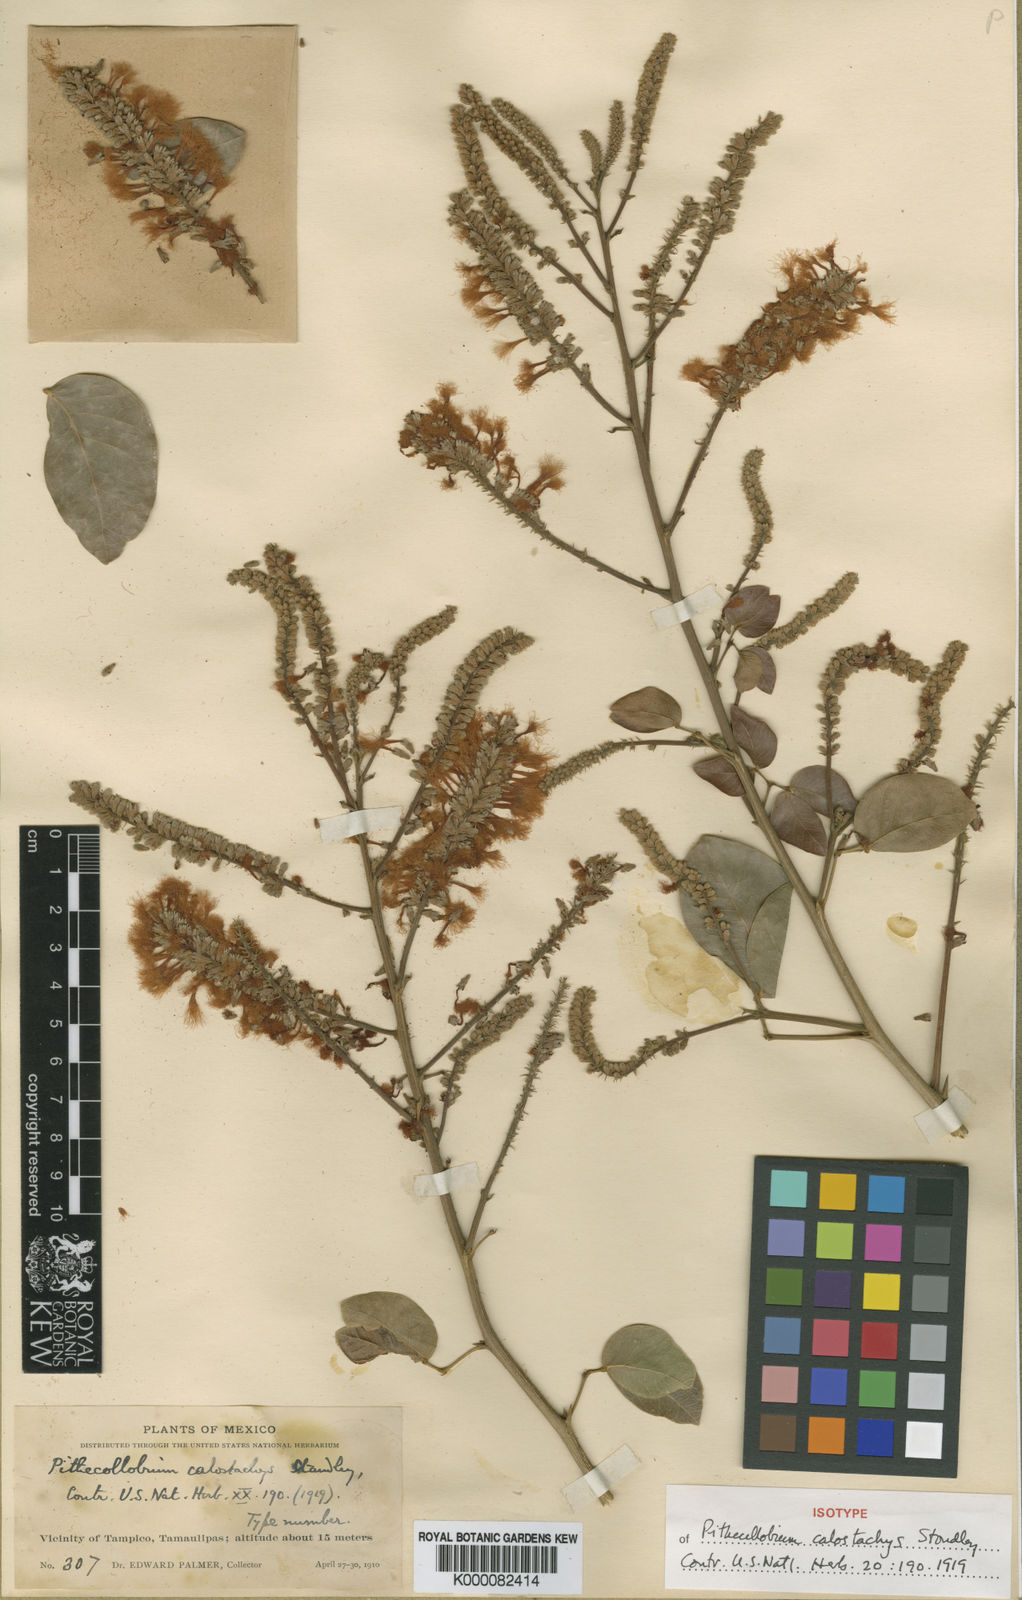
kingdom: Plantae
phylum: Tracheophyta
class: Magnoliopsida
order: Fabales
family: Fabaceae
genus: Pithecellobium
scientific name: Pithecellobium lanceolatum
